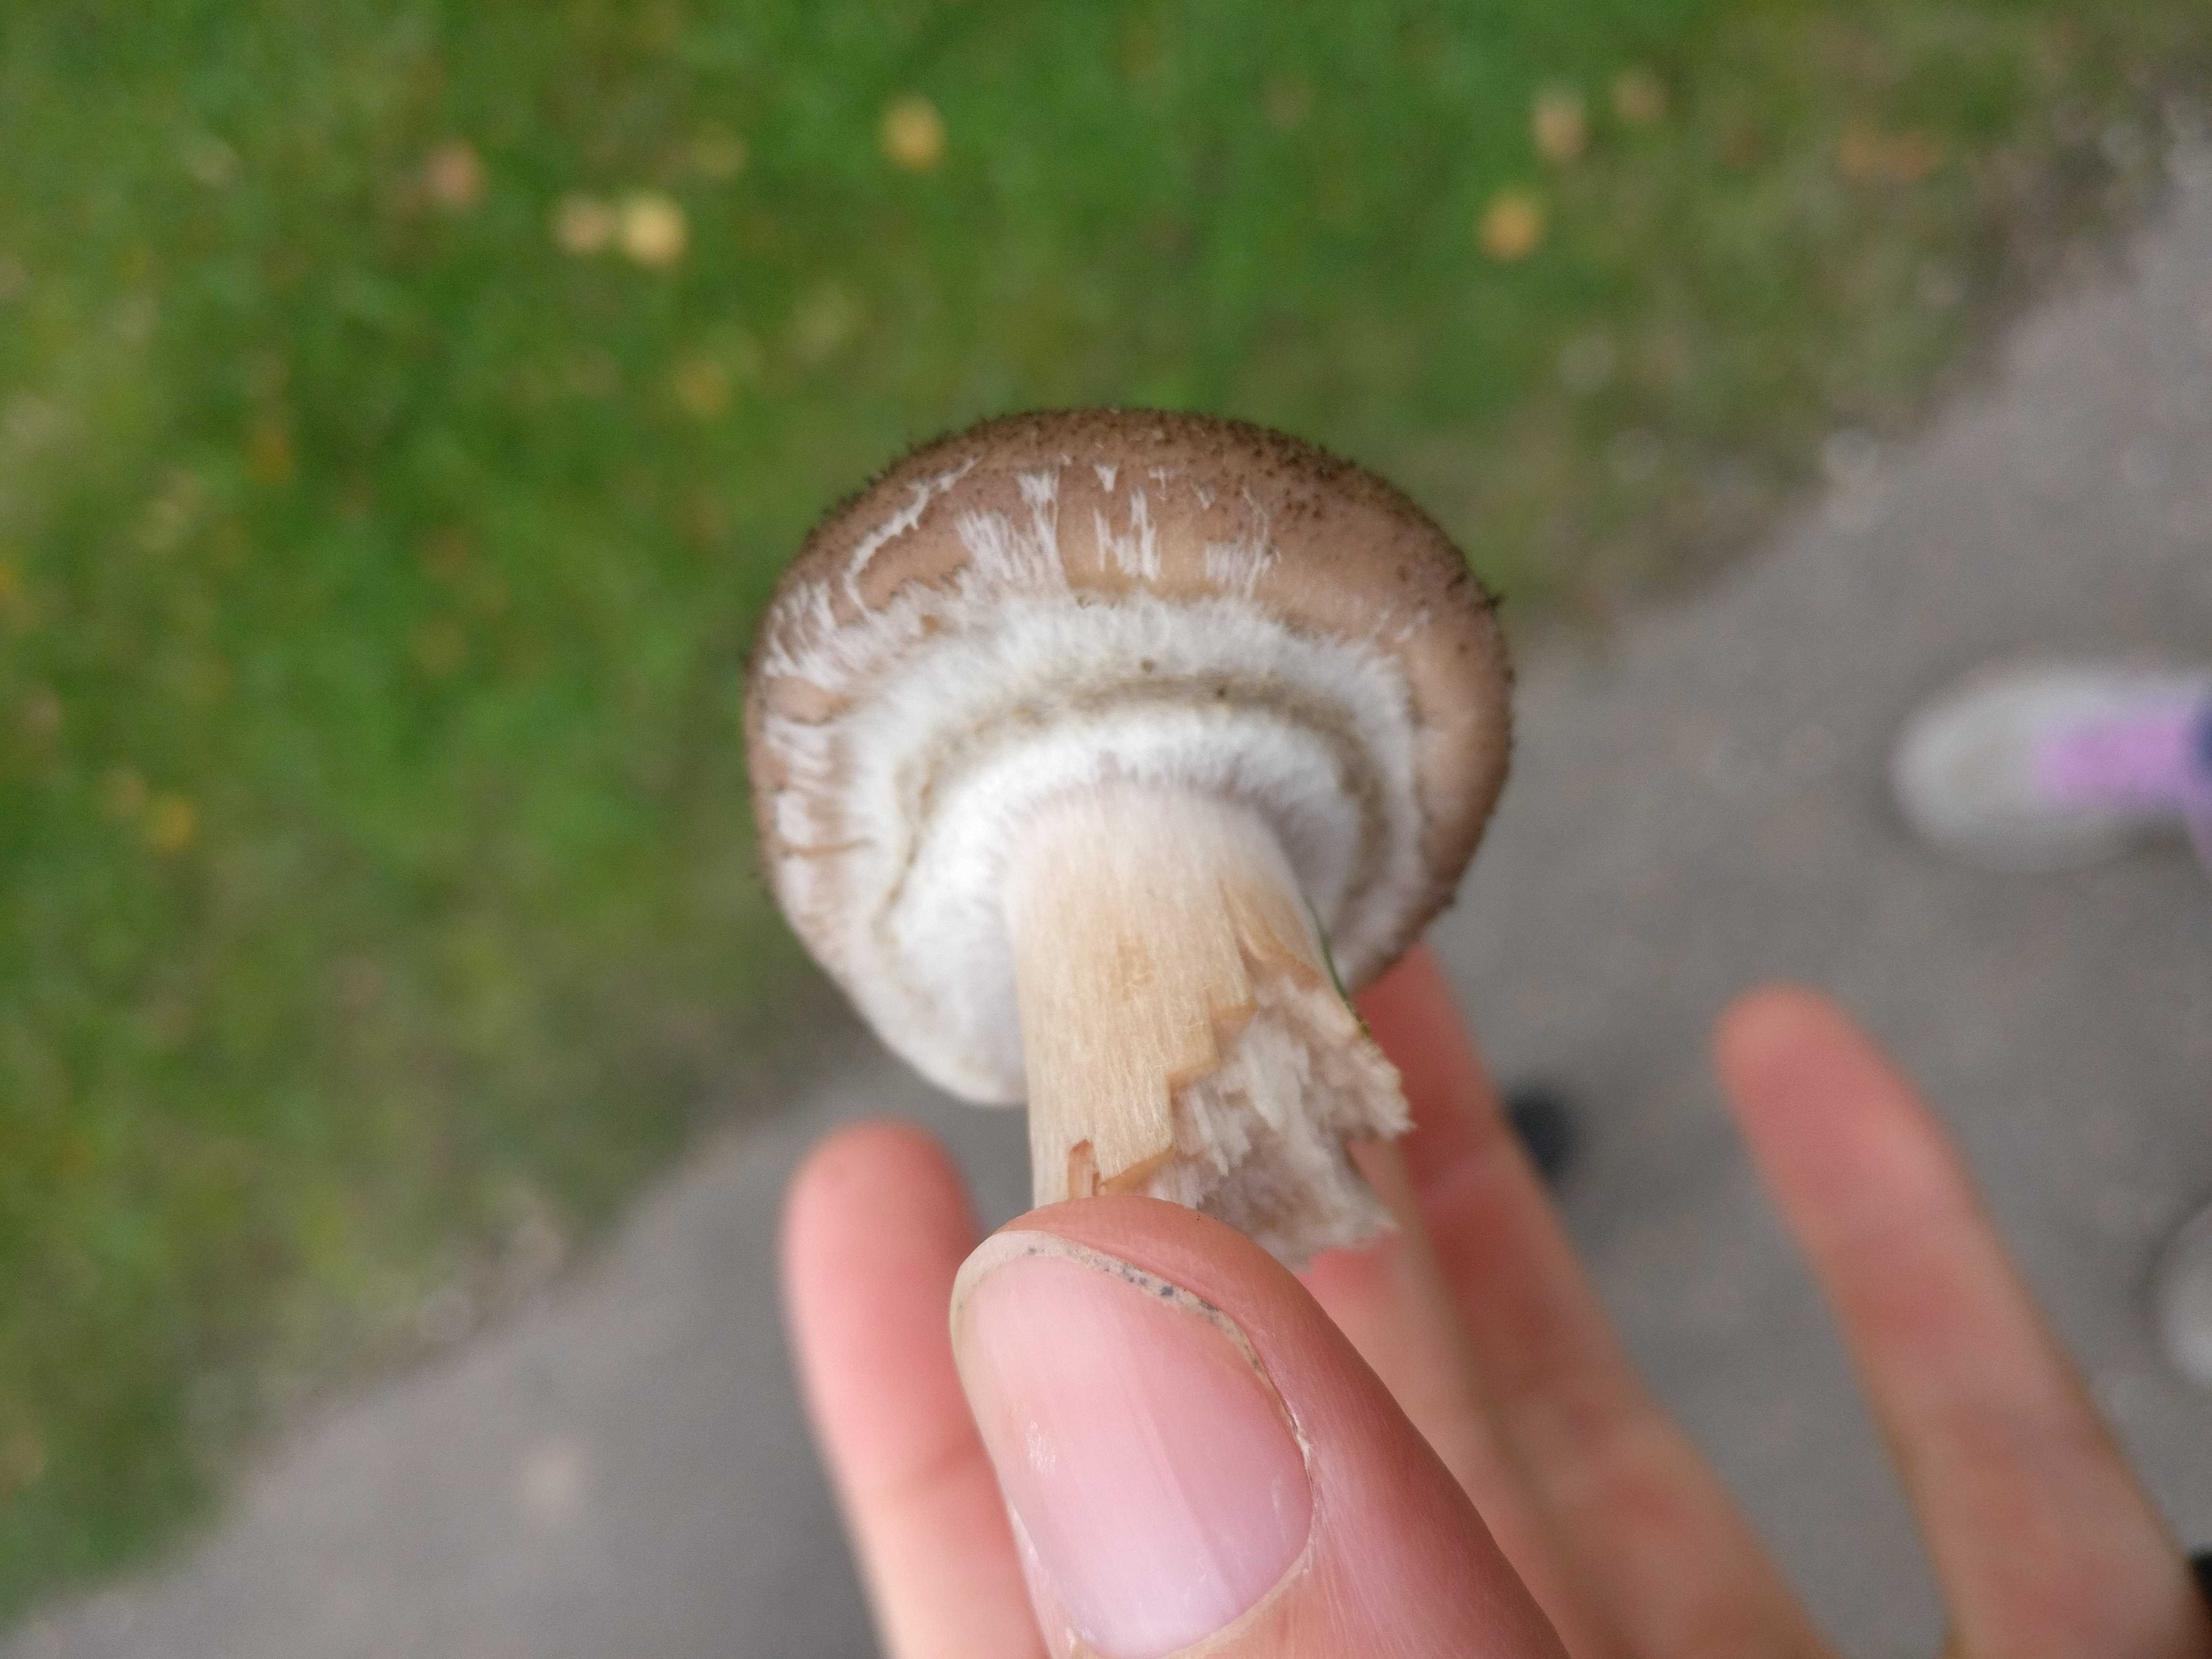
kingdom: Fungi
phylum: Basidiomycota
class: Agaricomycetes
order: Agaricales
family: Physalacriaceae
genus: Armillaria
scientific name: Armillaria
